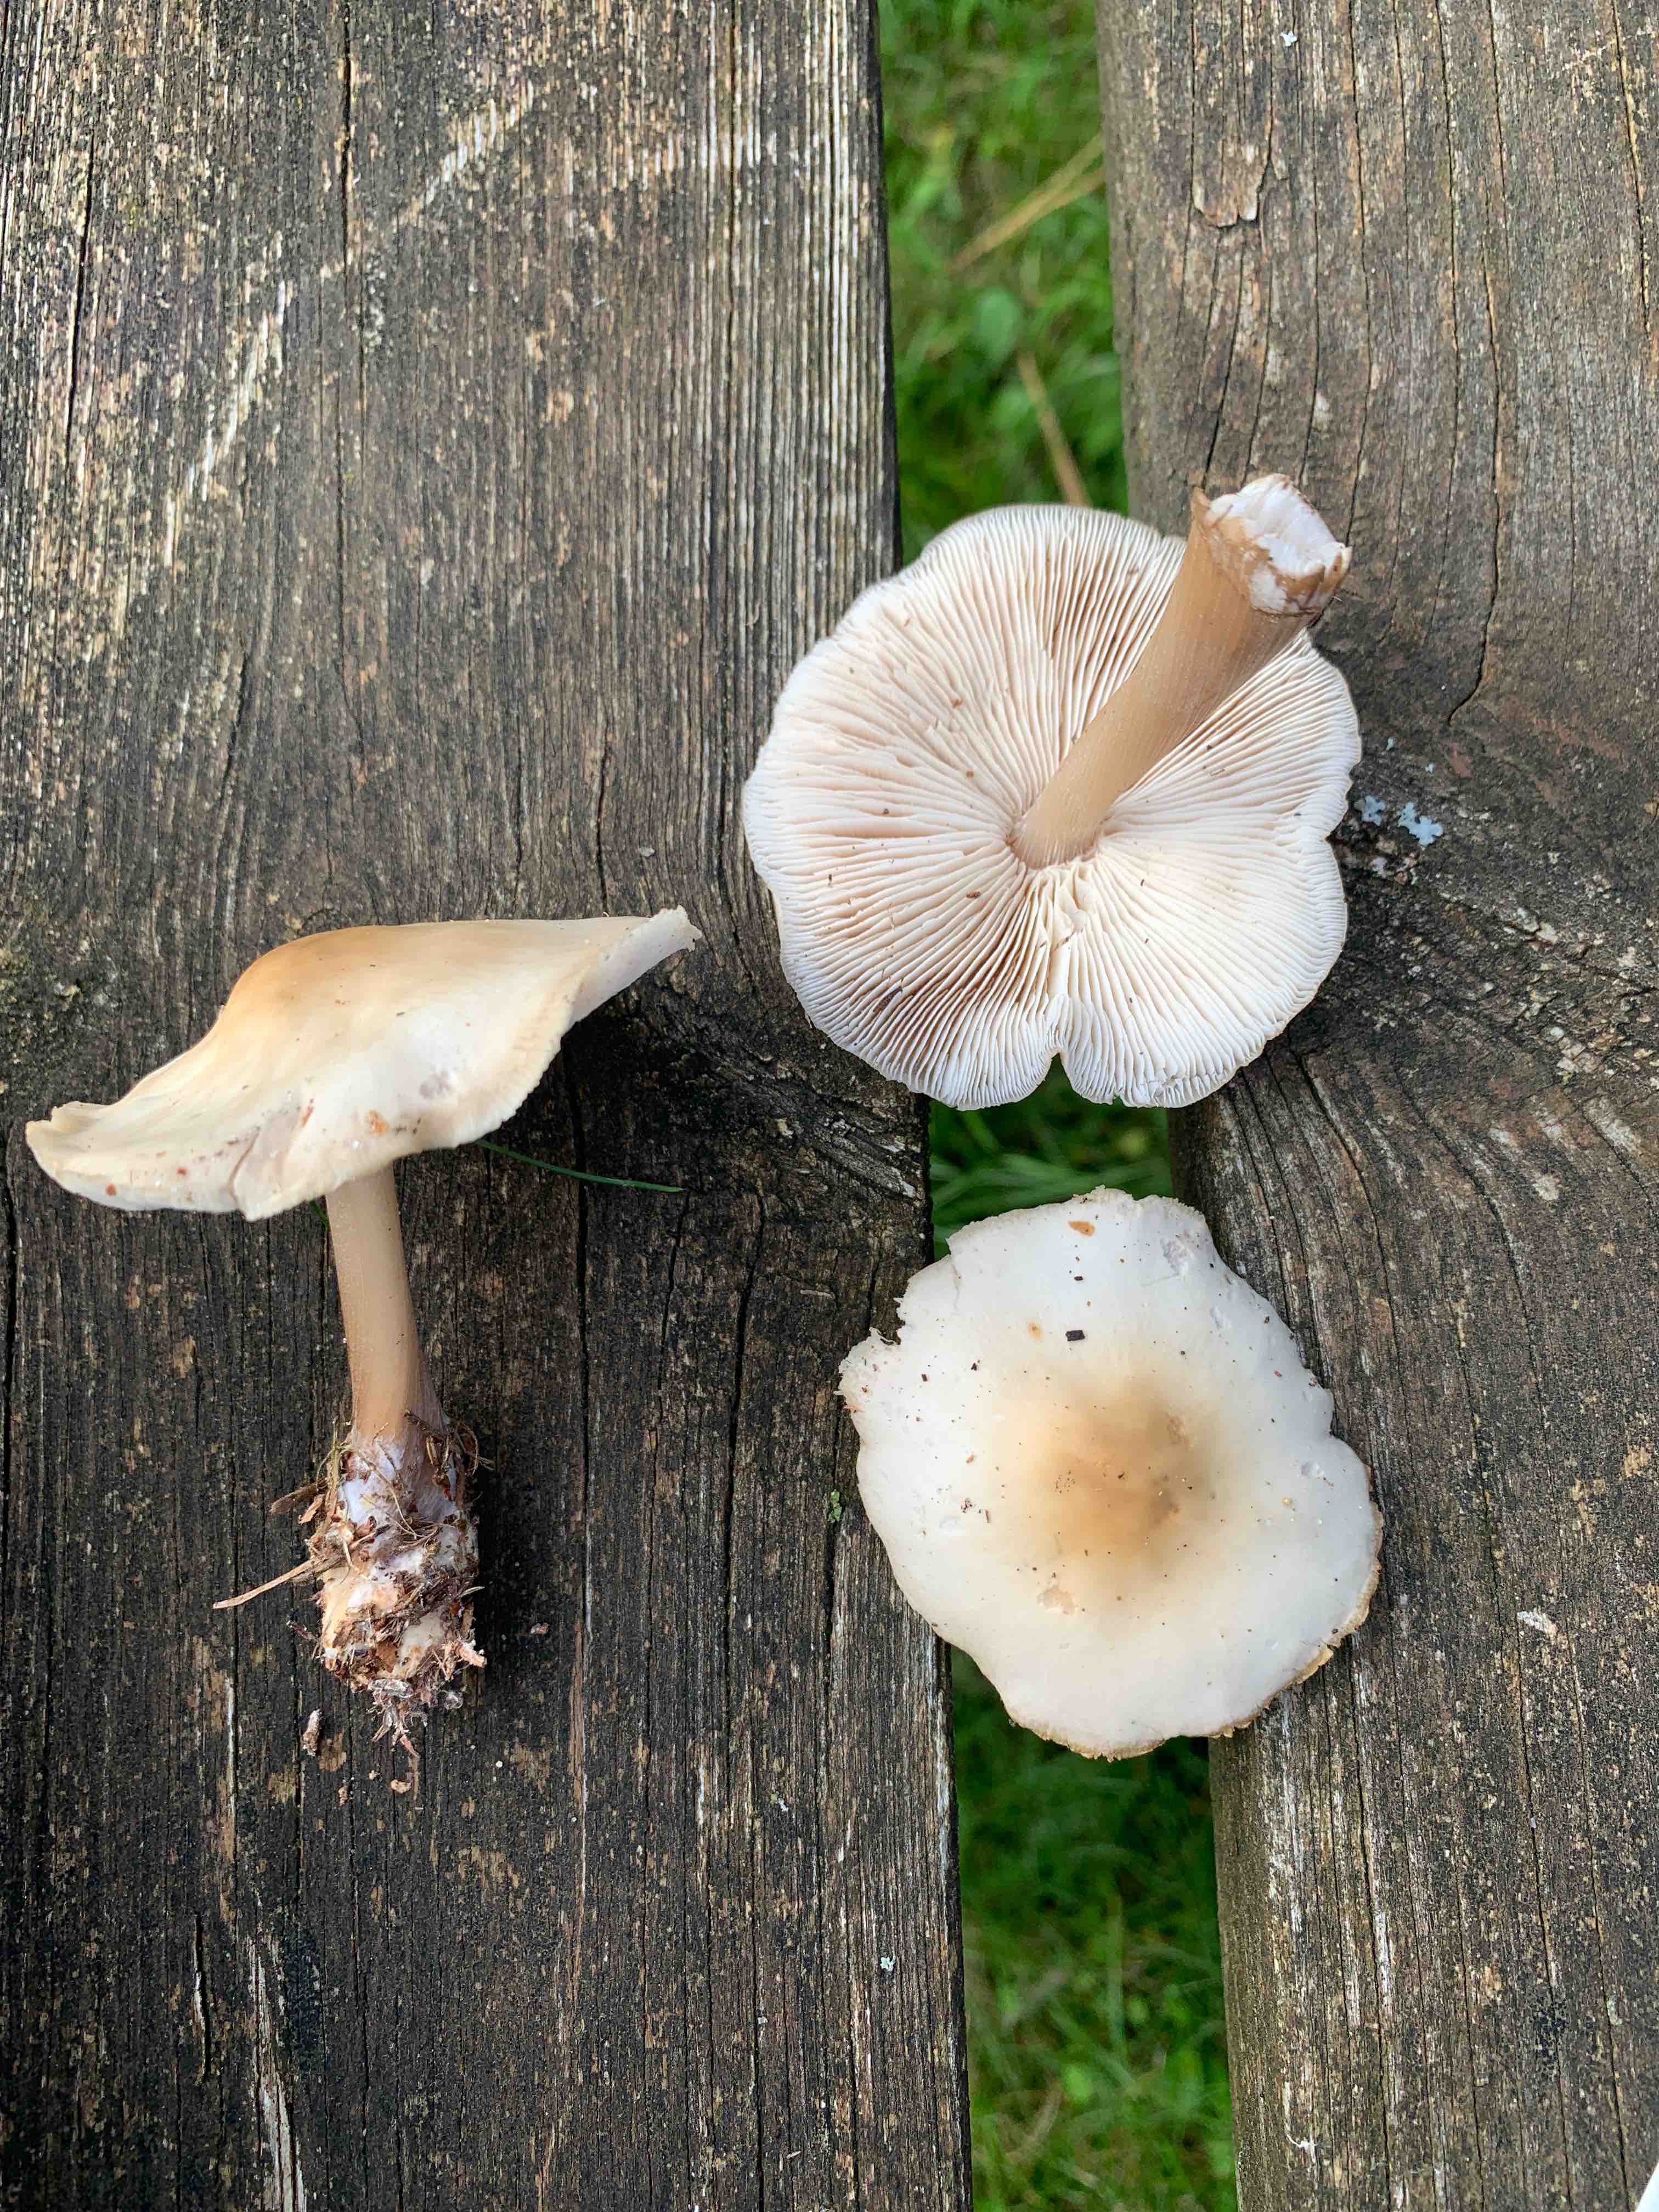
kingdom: Fungi
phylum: Basidiomycota
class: Agaricomycetes
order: Agaricales
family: Omphalotaceae
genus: Rhodocollybia
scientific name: Rhodocollybia asema
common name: horngrå fladhat
